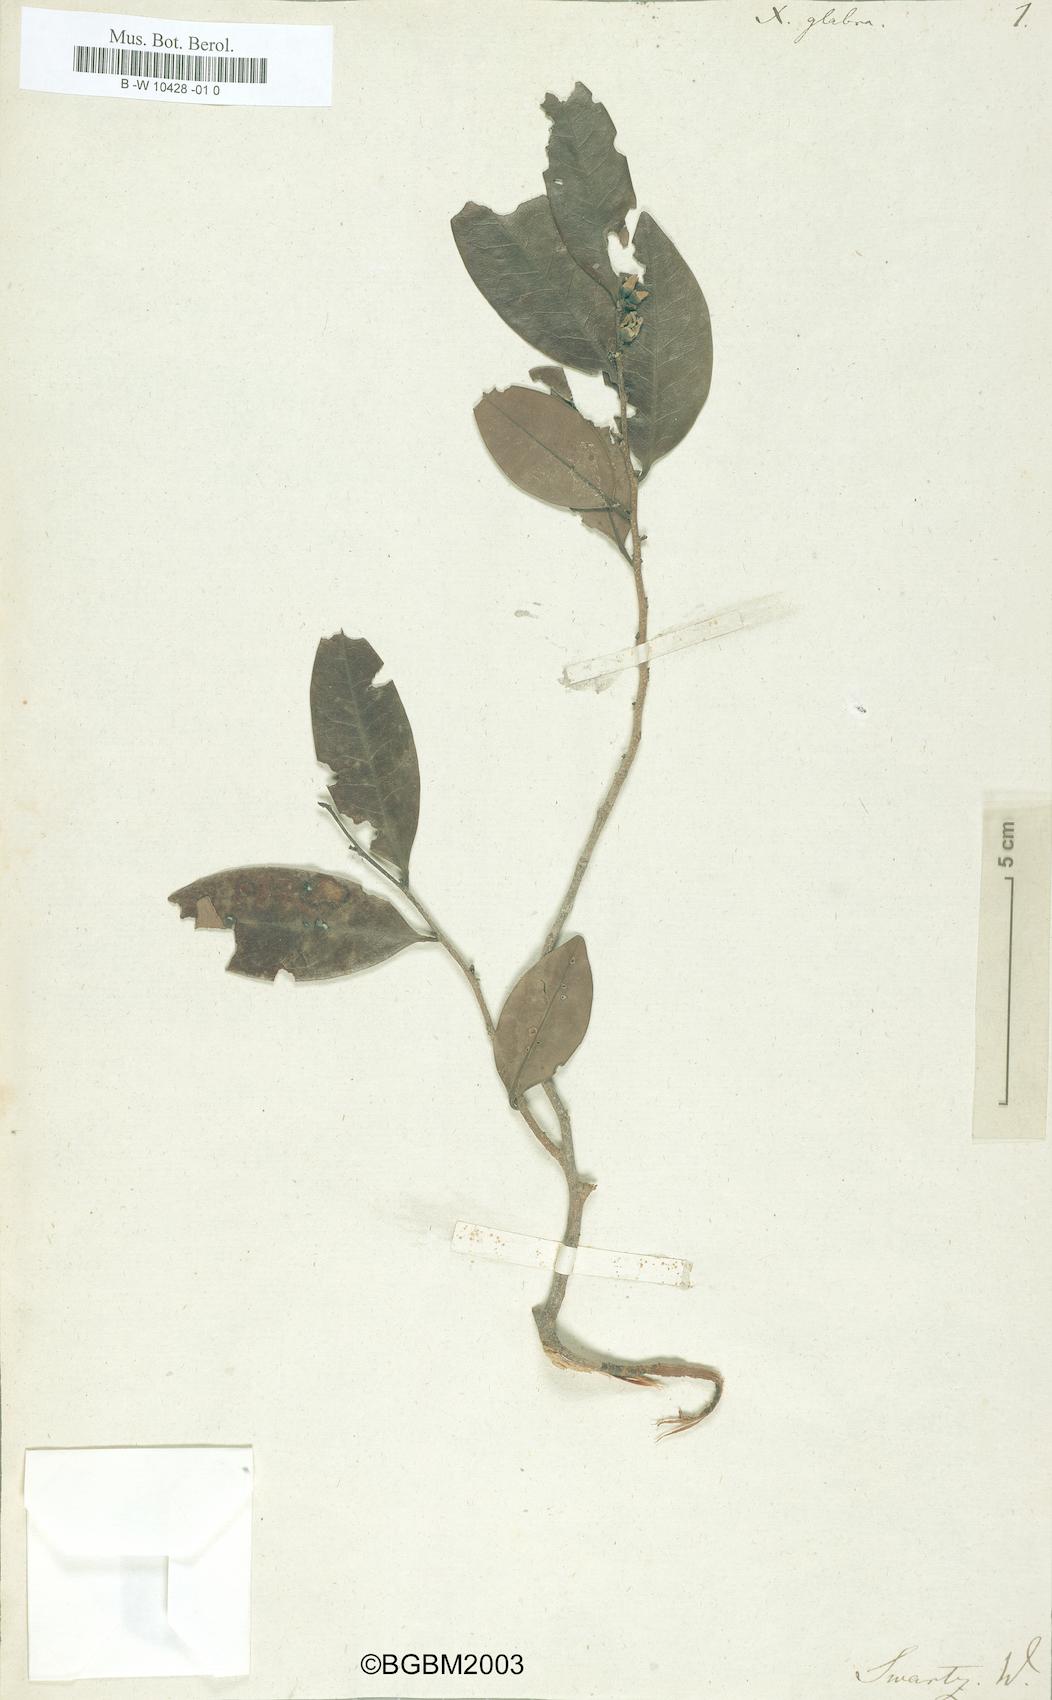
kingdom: Plantae
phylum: Tracheophyta
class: Magnoliopsida
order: Magnoliales
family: Annonaceae
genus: Annona
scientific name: Annona squamosa
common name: Custard-apple
